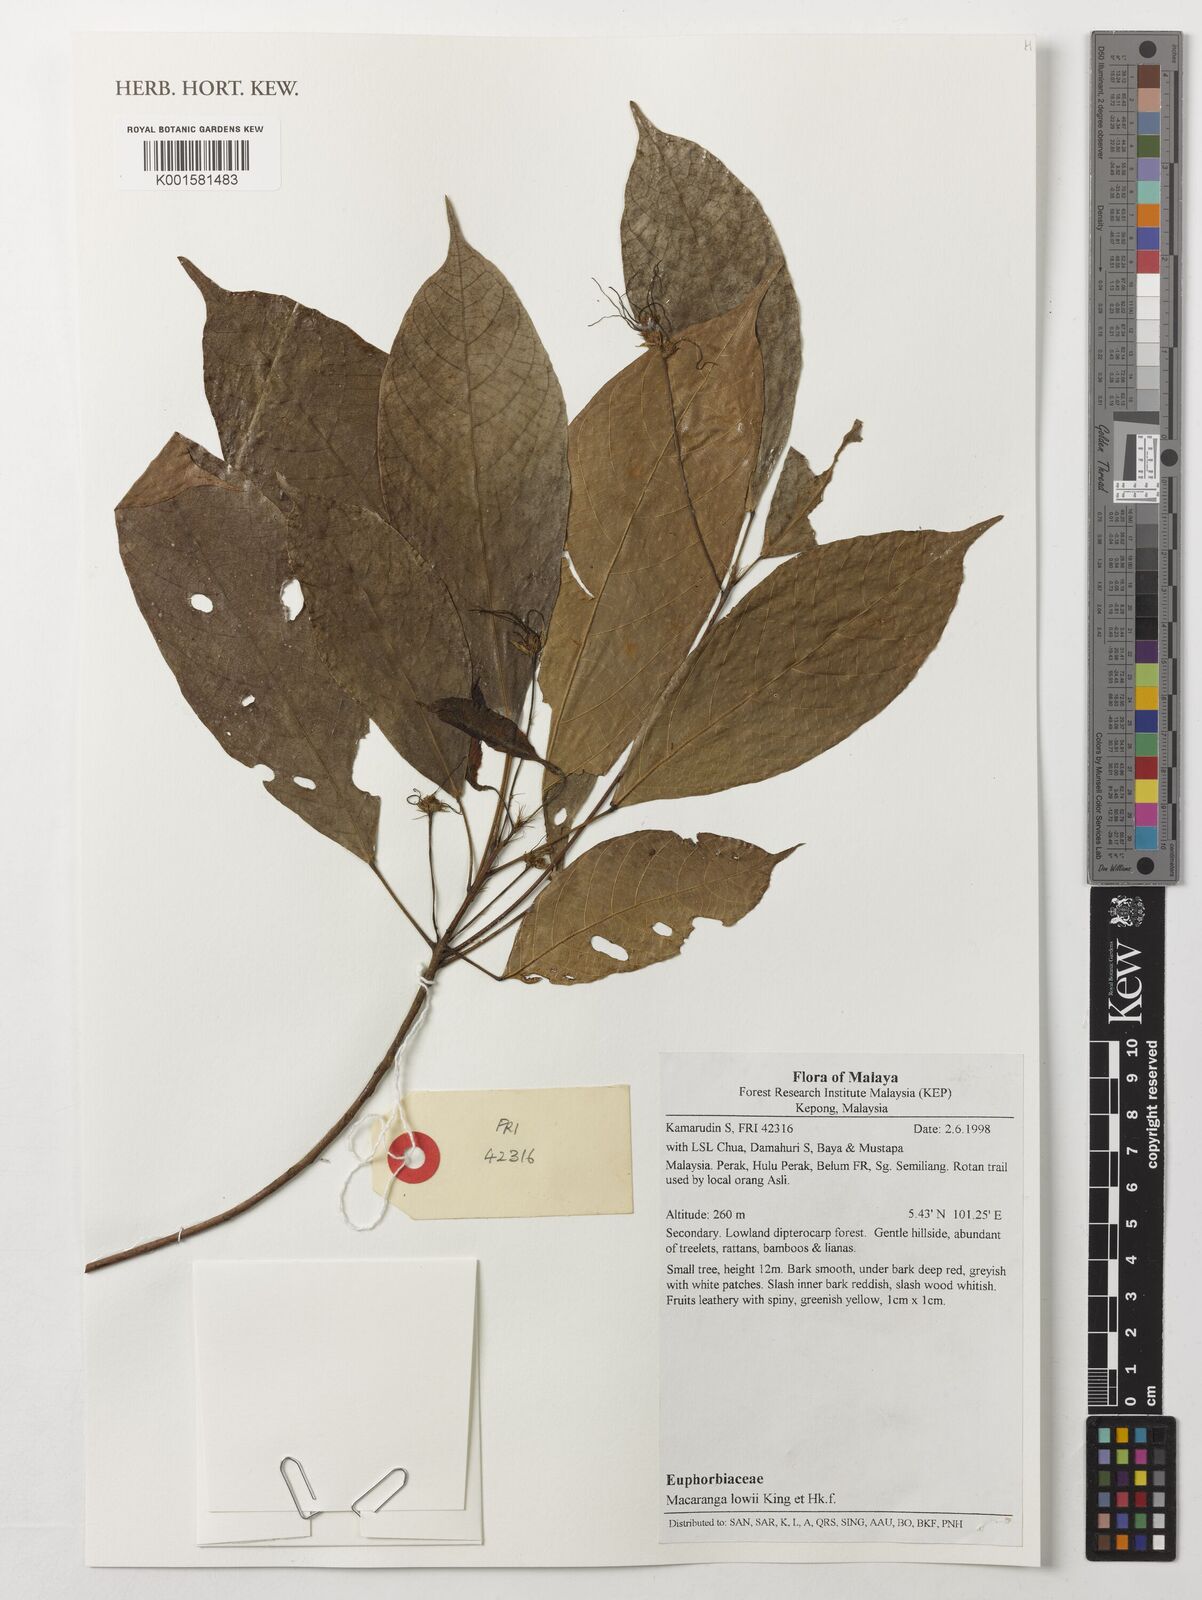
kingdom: Plantae
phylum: Tracheophyta
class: Magnoliopsida
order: Malpighiales
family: Euphorbiaceae
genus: Macaranga
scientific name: Macaranga lowii
